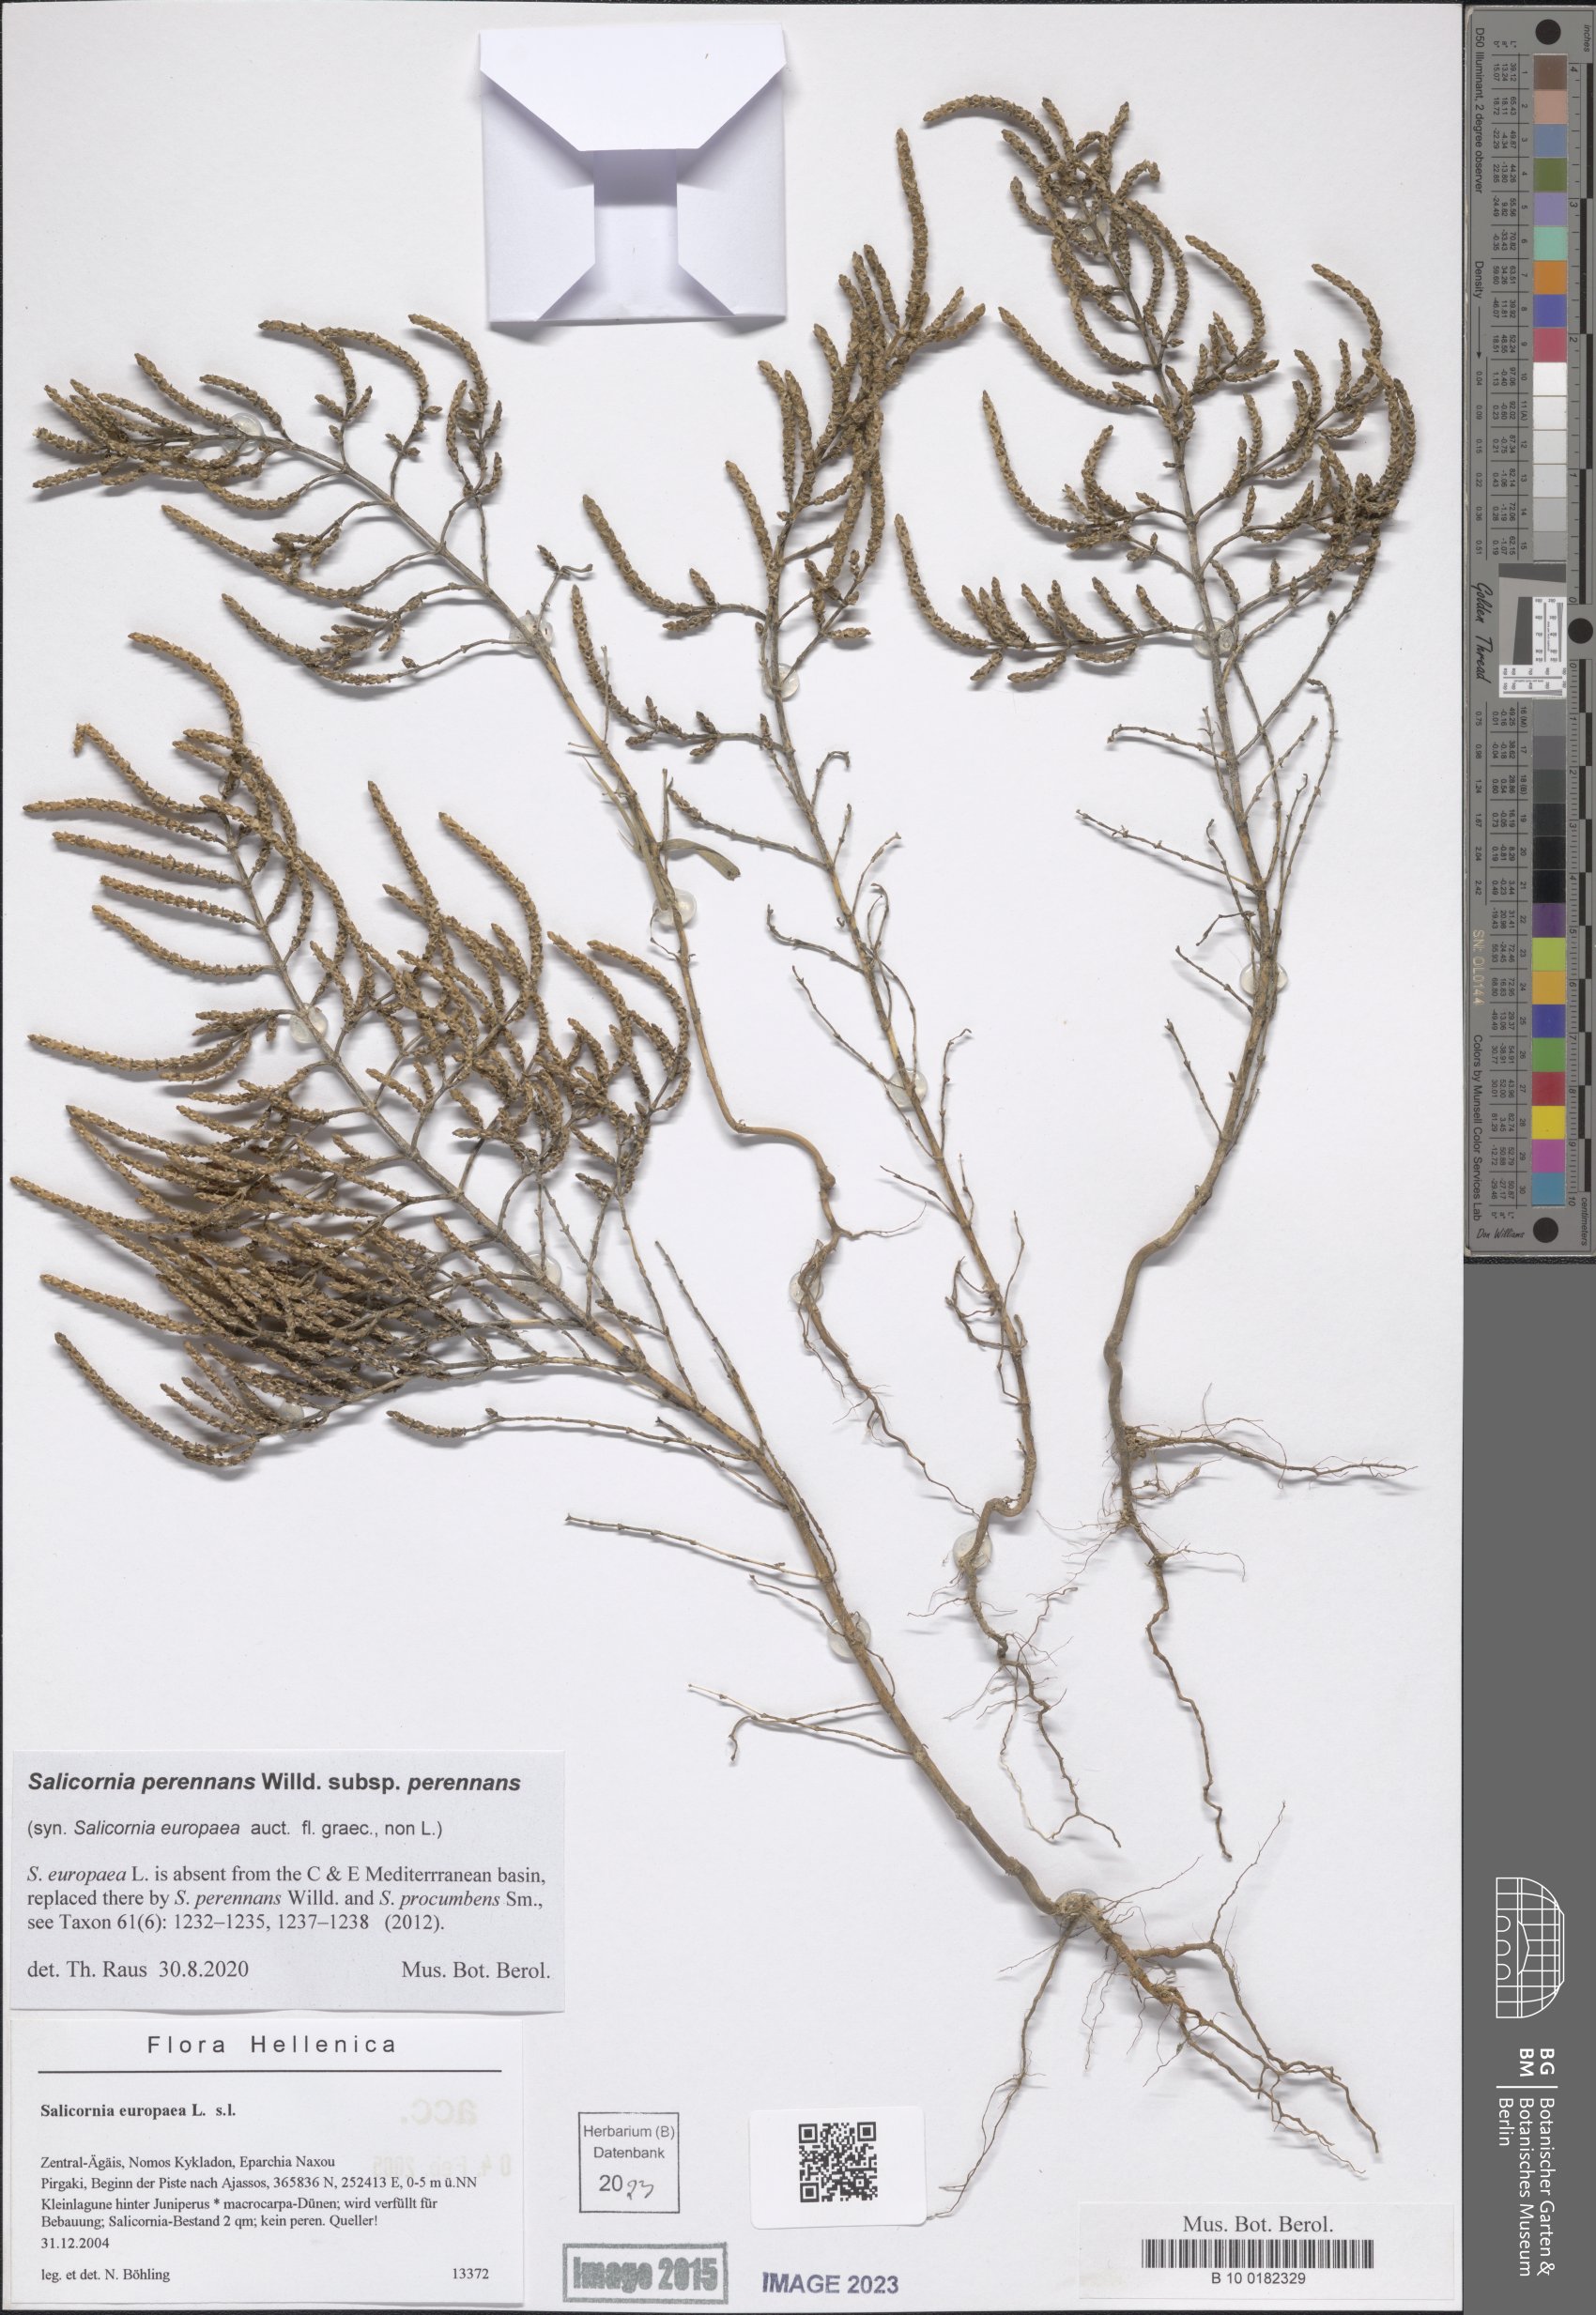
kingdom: Plantae
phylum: Tracheophyta
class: Magnoliopsida
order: Caryophyllales
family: Amaranthaceae
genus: Salicornia
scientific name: Salicornia perennans
